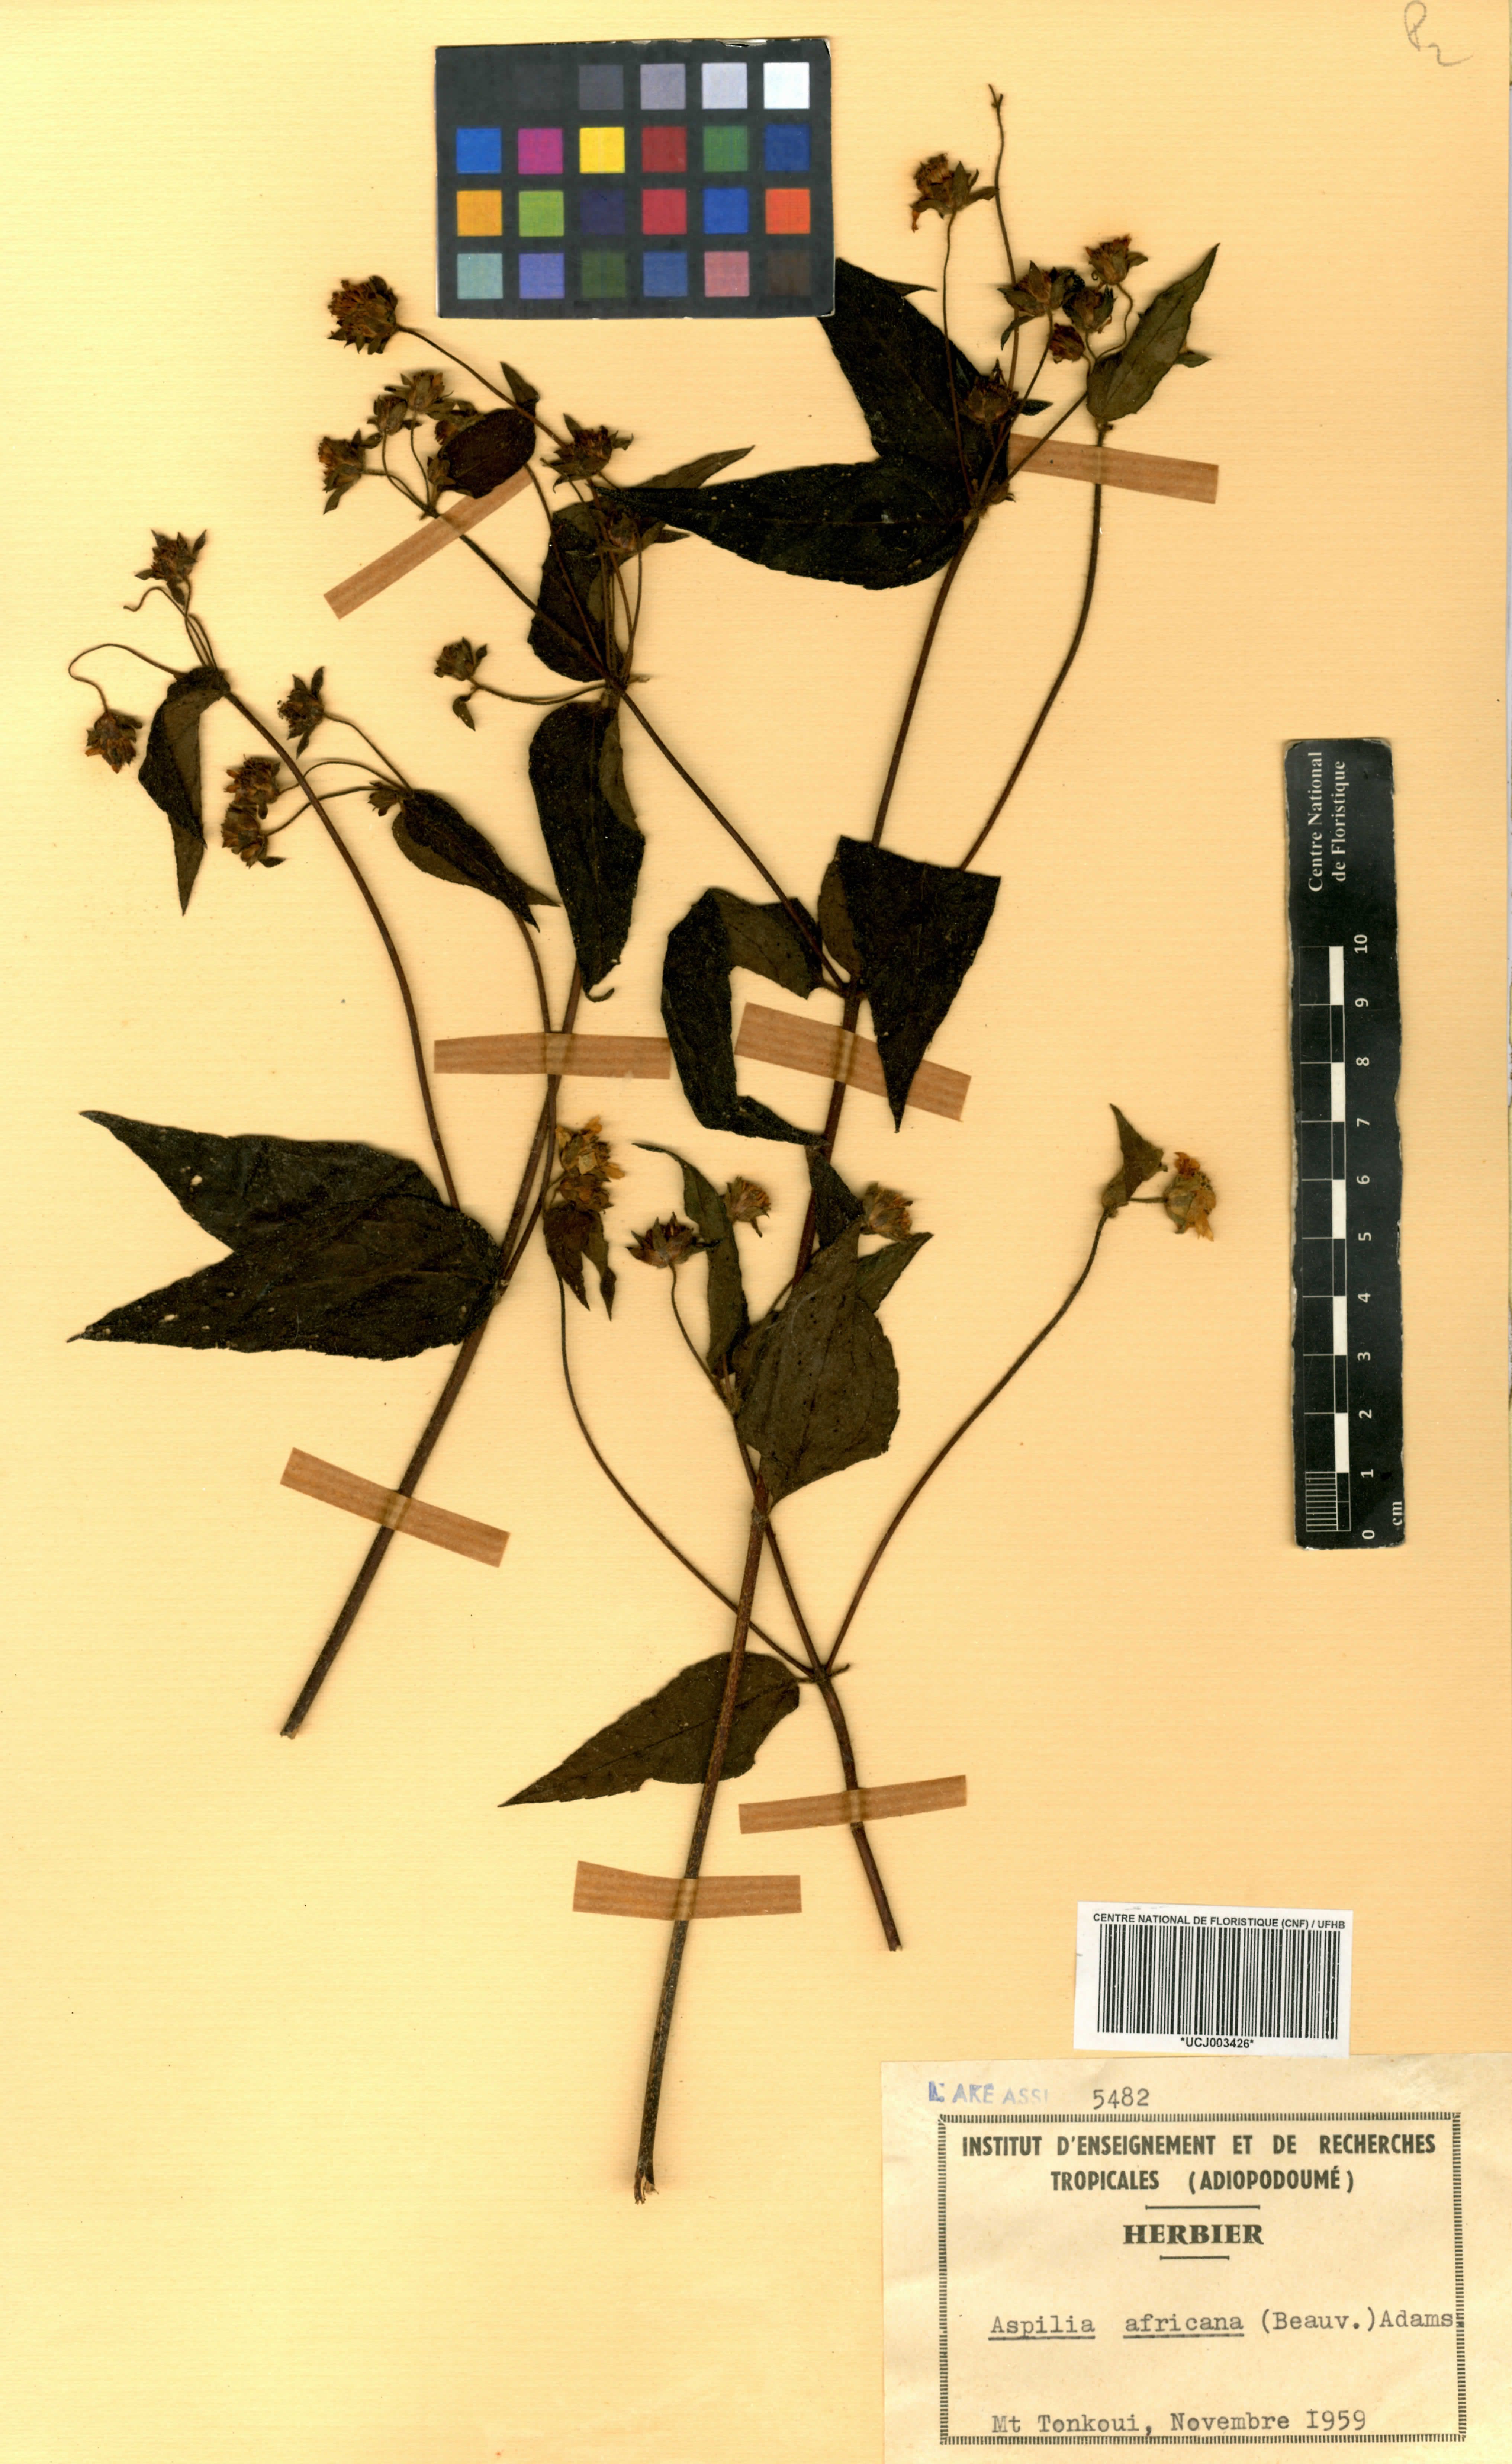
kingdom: Plantae
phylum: Tracheophyta
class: Magnoliopsida
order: Asterales
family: Asteraceae
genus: Aspilia
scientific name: Aspilia africana
